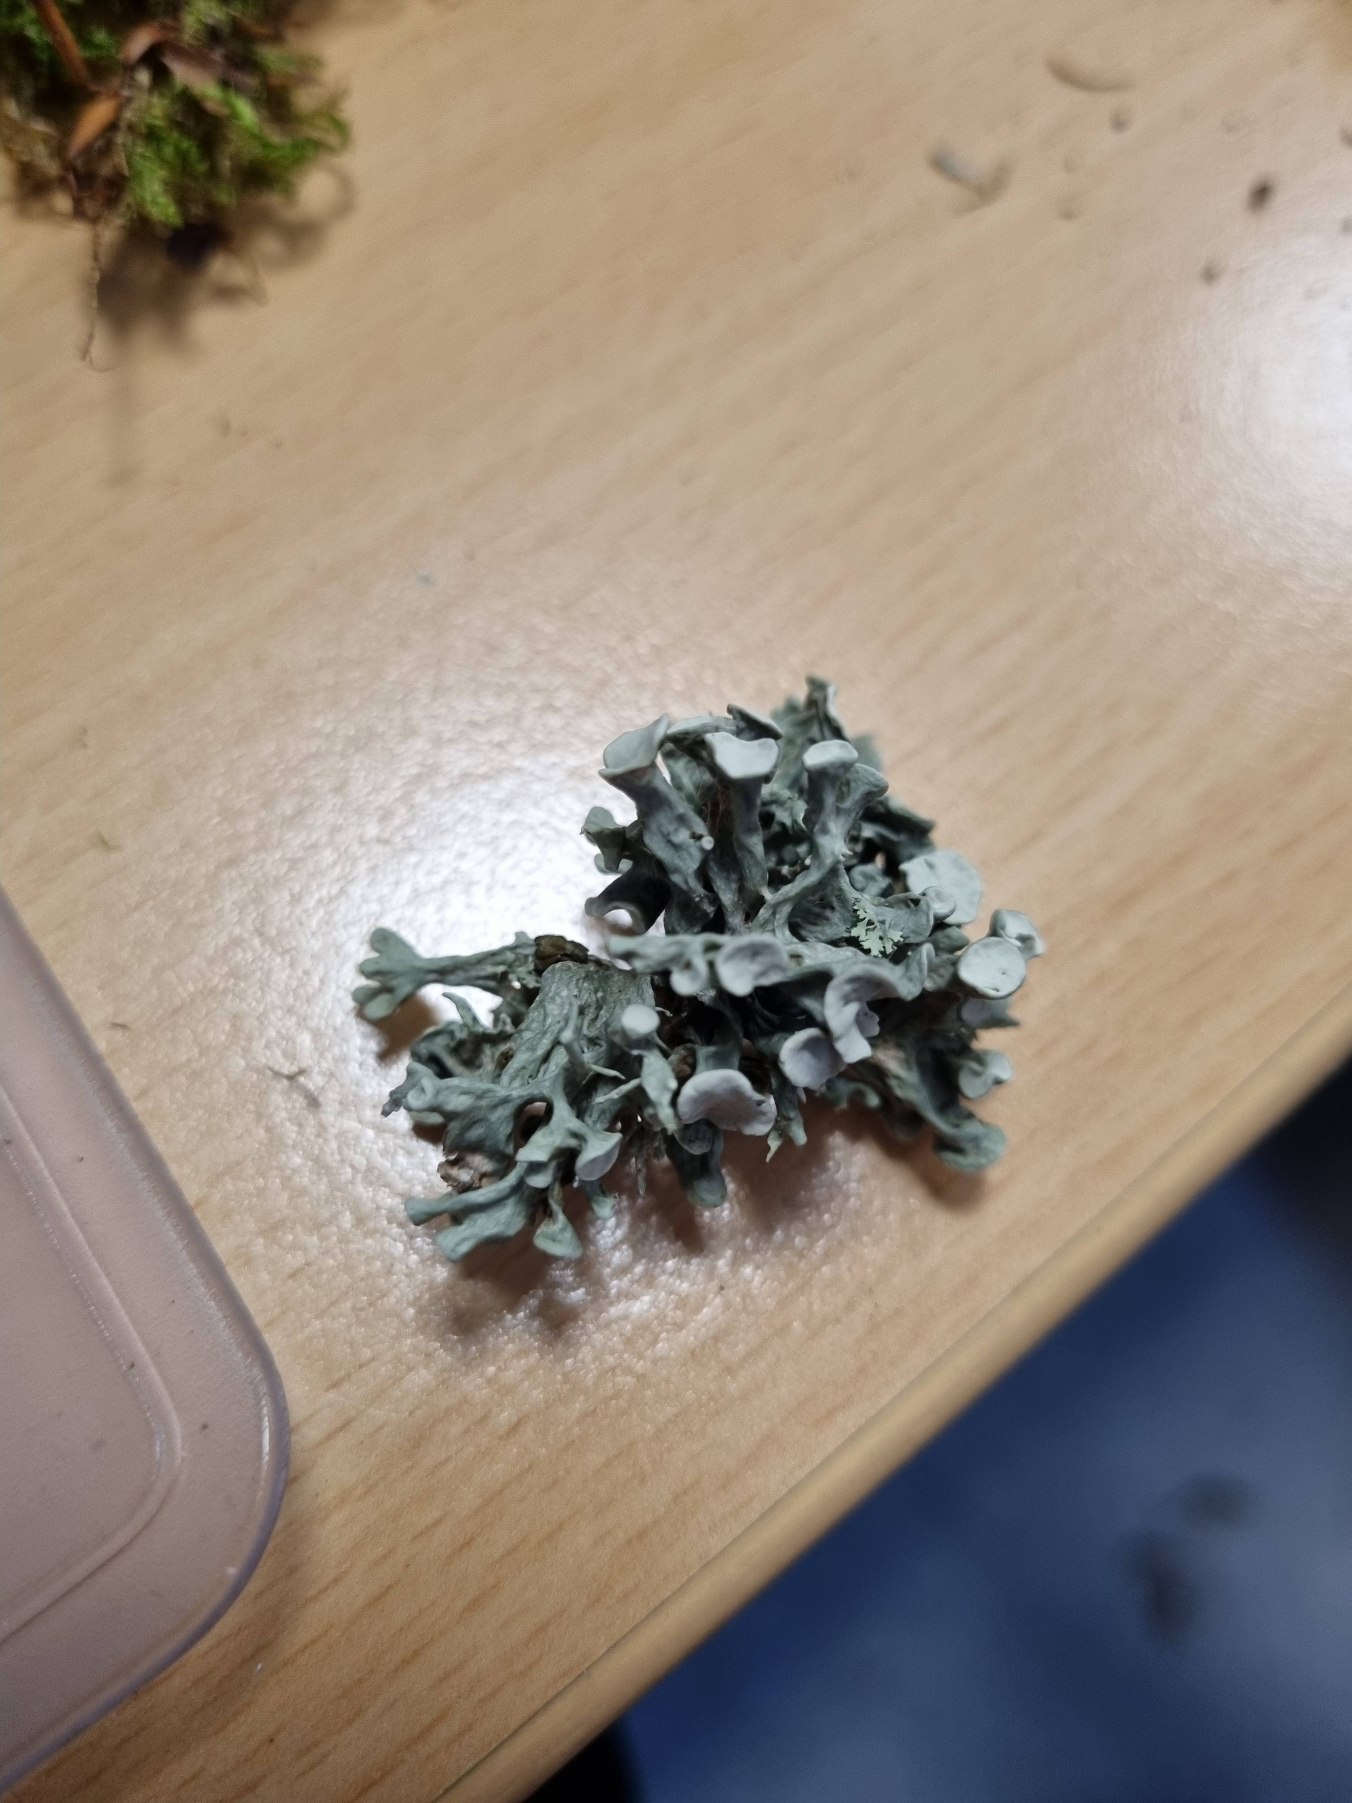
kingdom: Fungi
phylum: Ascomycota
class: Lecanoromycetes
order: Lecanorales
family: Ramalinaceae
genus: Ramalina
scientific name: Ramalina fastigiata
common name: Tue-grenlav
